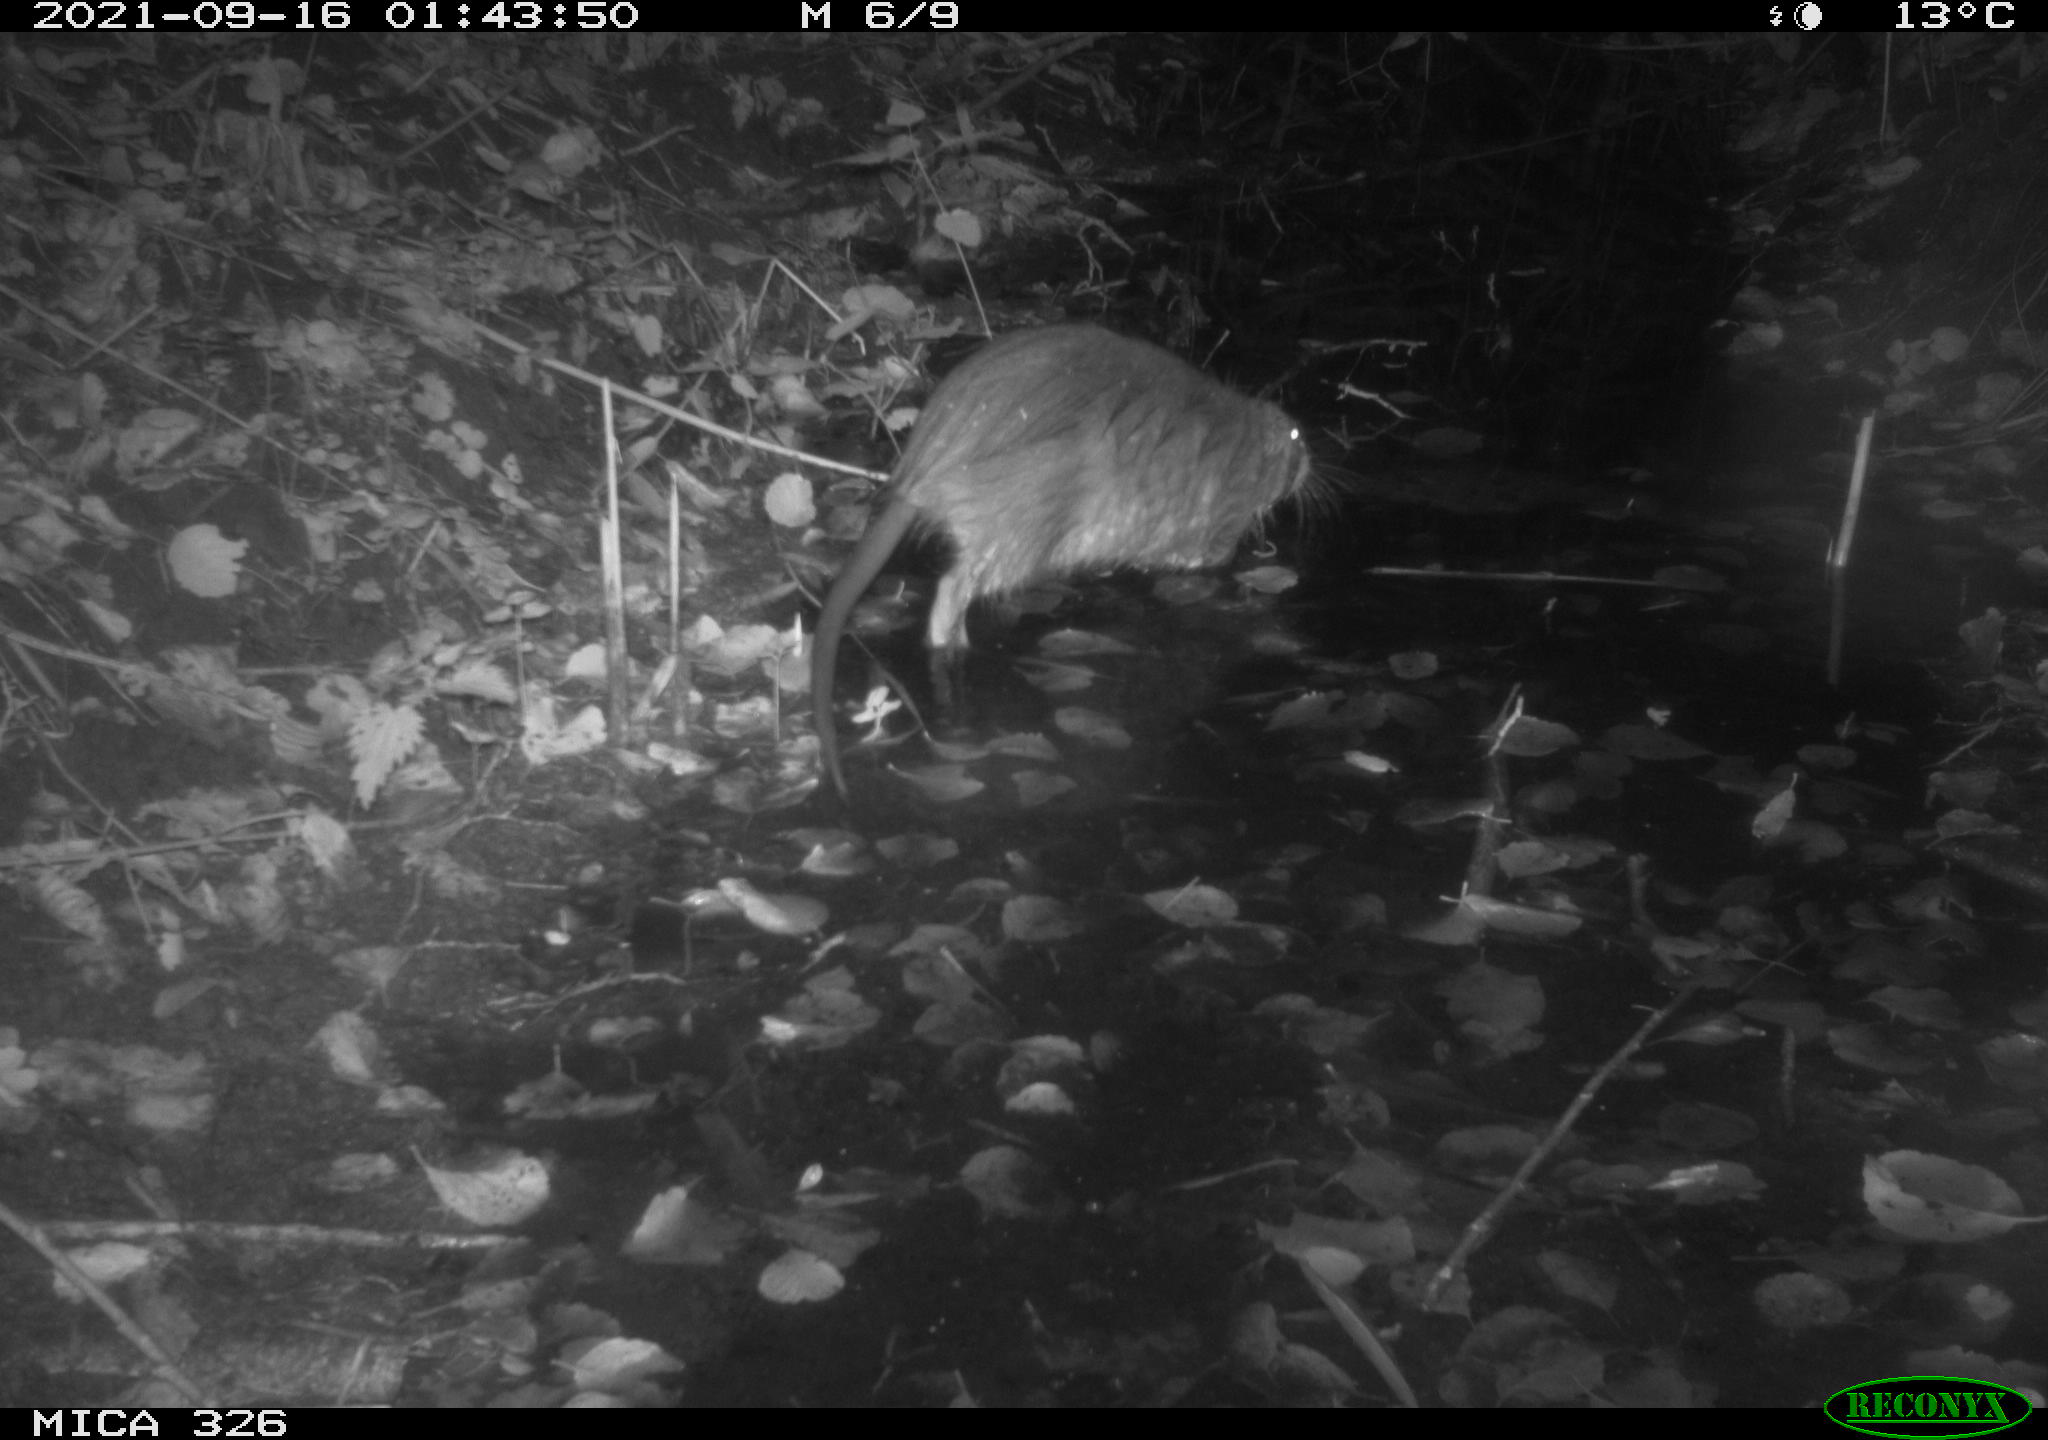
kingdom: Animalia
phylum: Chordata
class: Mammalia
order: Rodentia
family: Myocastoridae
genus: Myocastor
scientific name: Myocastor coypus
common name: Coypu
